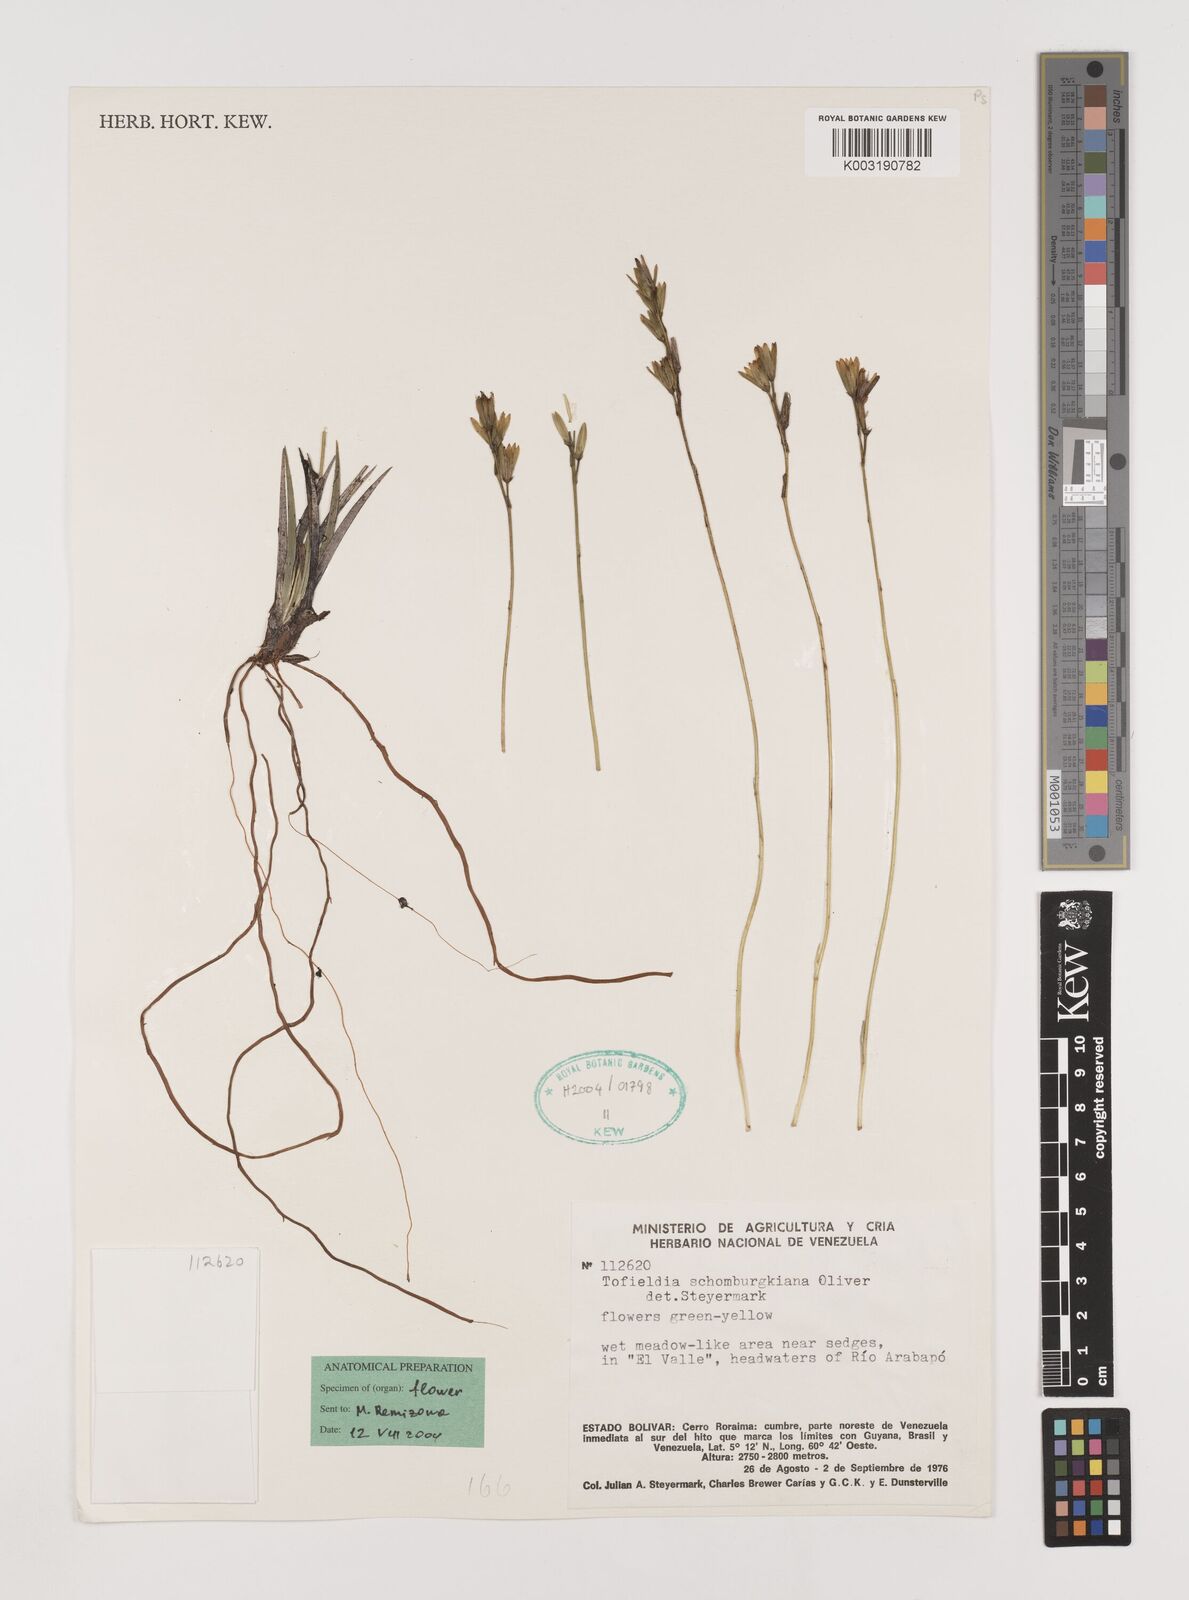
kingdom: Plantae
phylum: Tracheophyta
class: Liliopsida
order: Alismatales
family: Tofieldiaceae
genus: Harperocallis
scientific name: Harperocallis schomburgkiana
